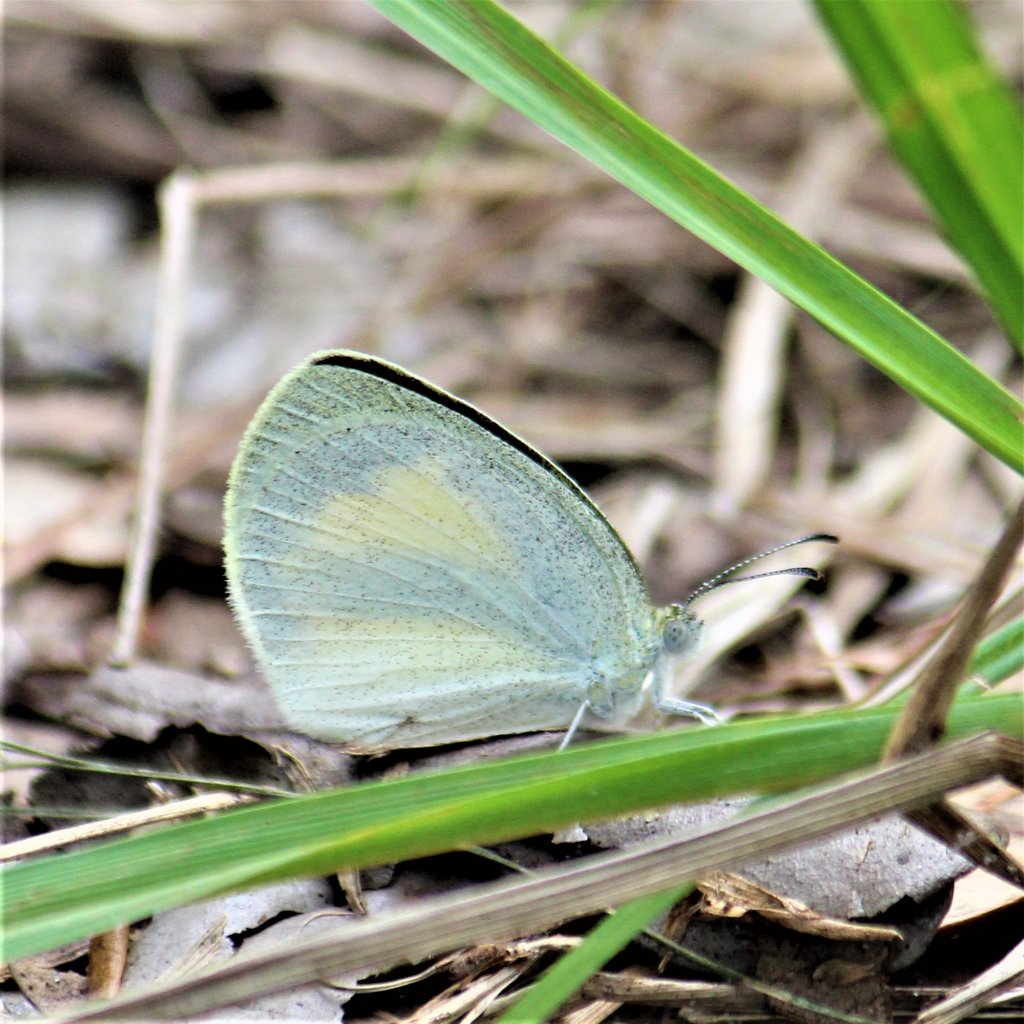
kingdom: Animalia
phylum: Arthropoda
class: Insecta
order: Lepidoptera
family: Pieridae
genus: Eurema
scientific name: Eurema daira
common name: Barred Yellow
